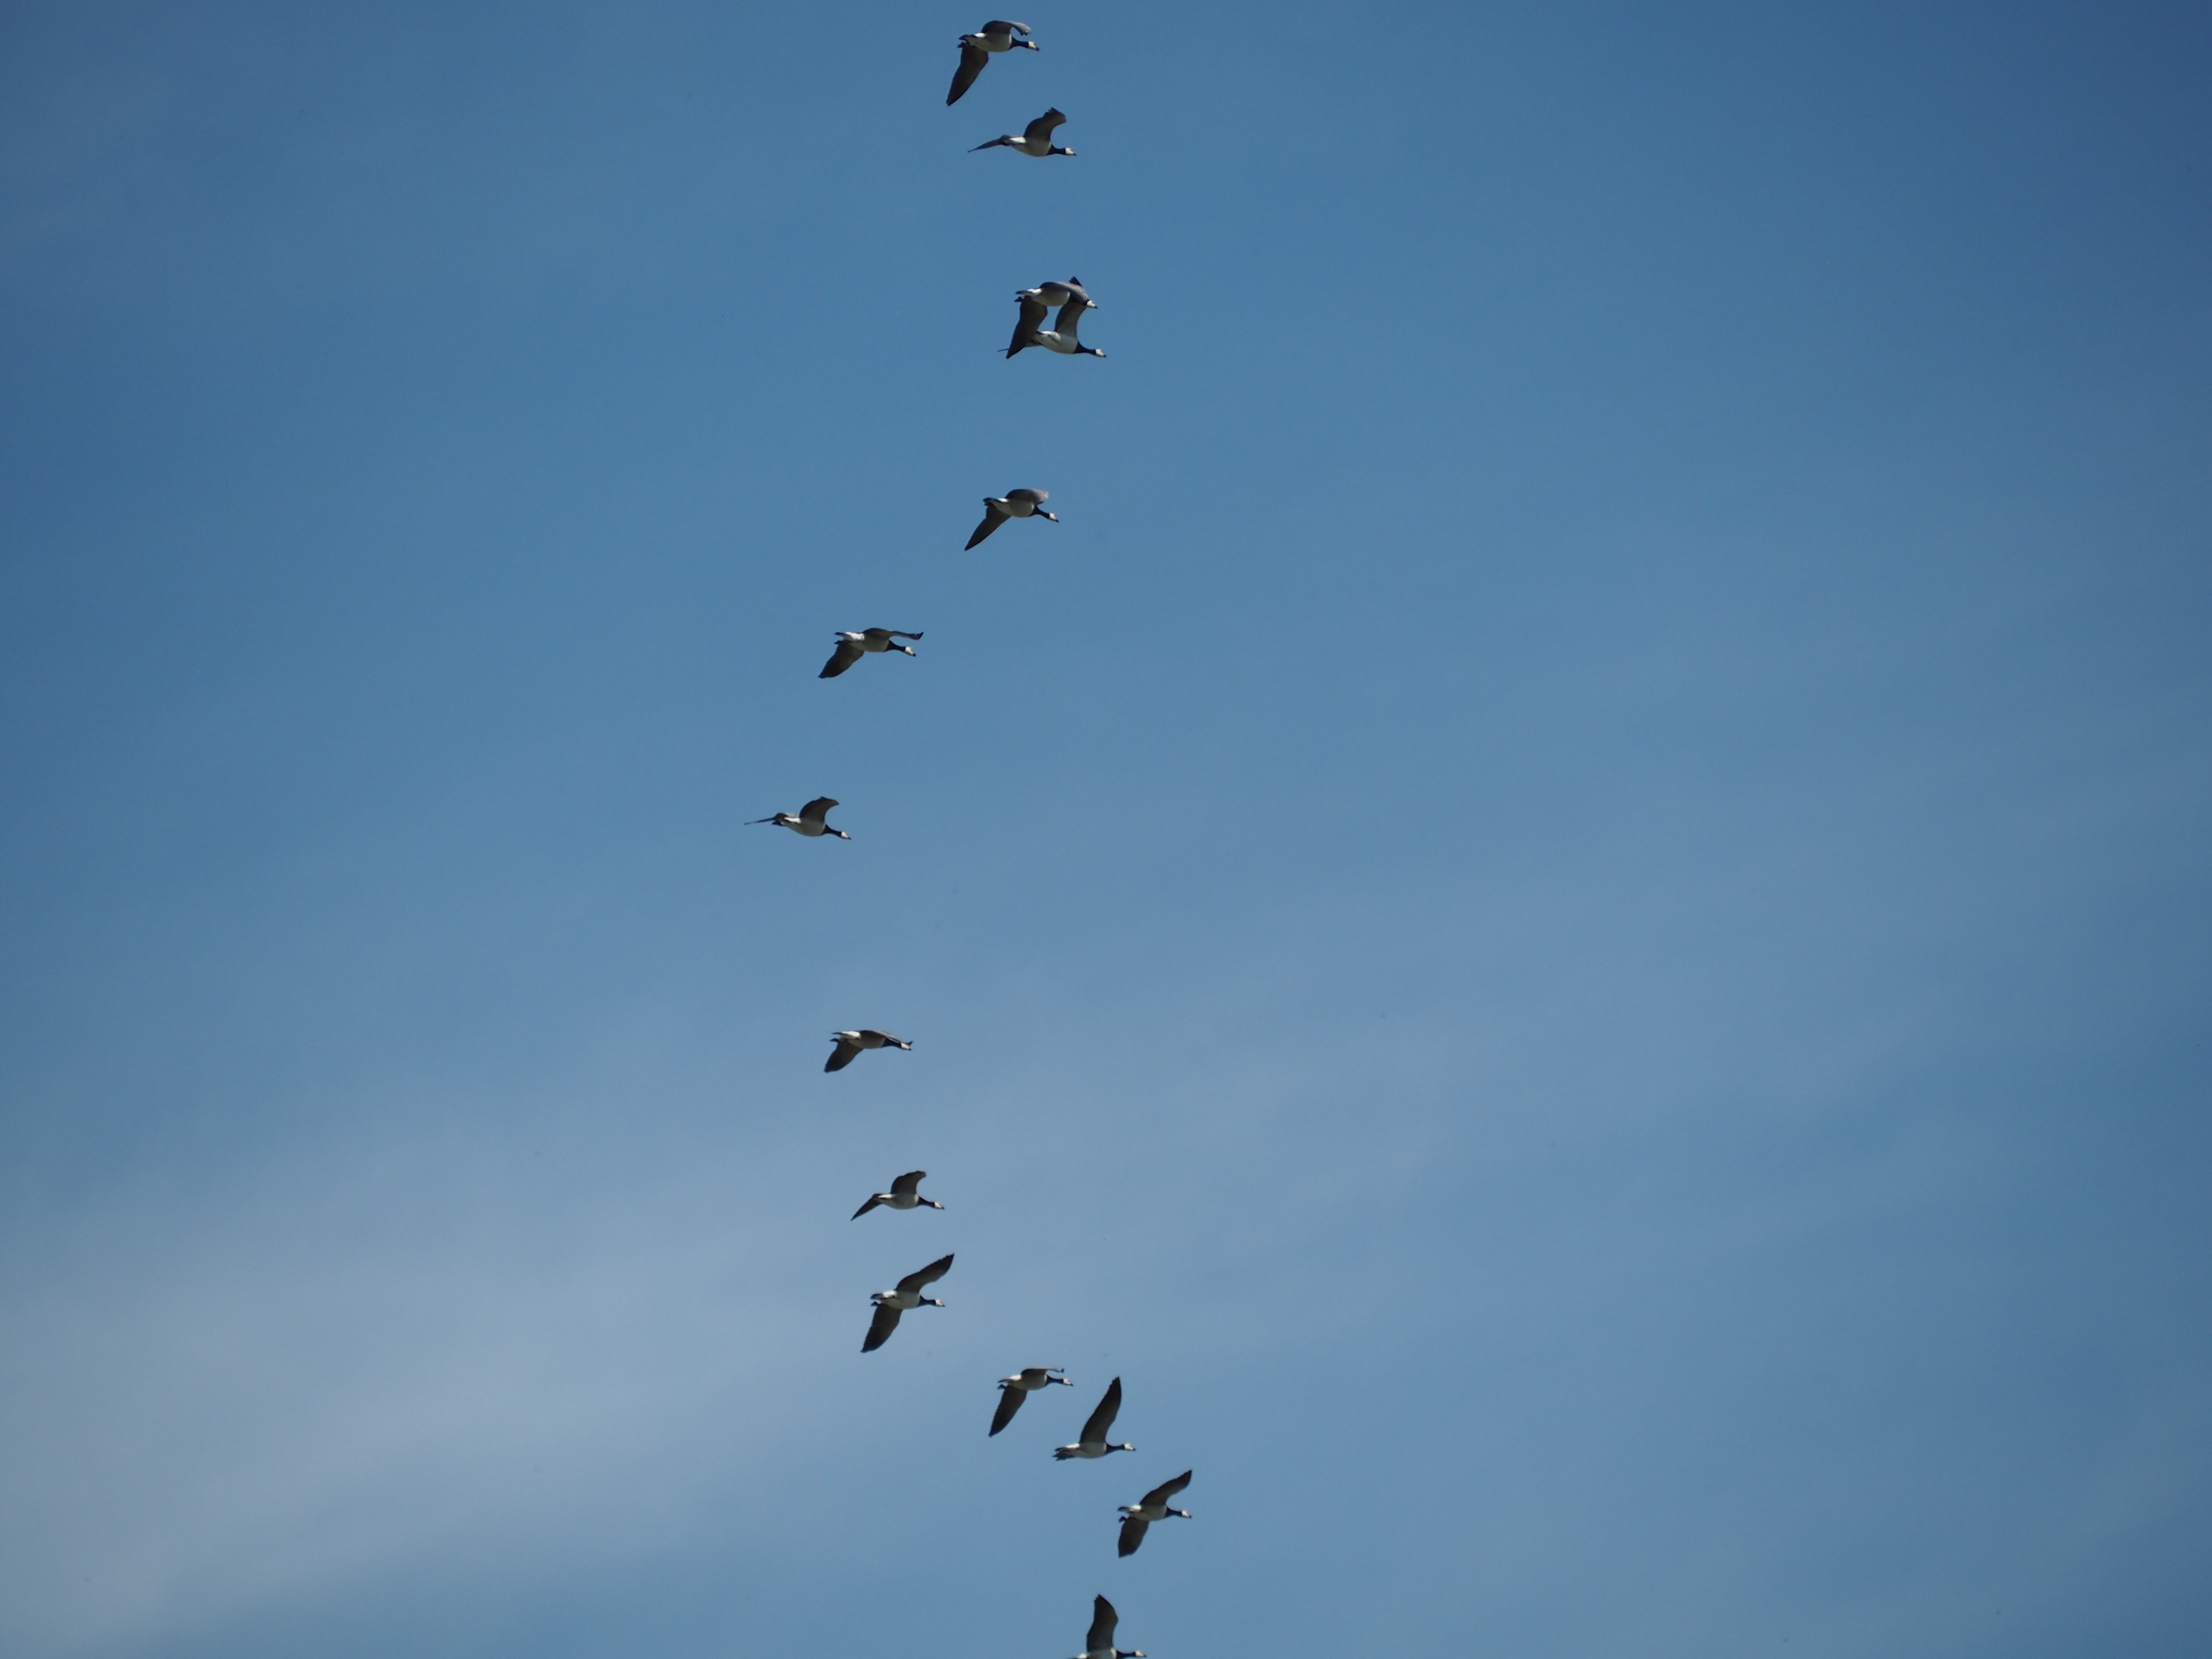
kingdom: Animalia
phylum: Chordata
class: Aves
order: Anseriformes
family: Anatidae
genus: Branta
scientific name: Branta leucopsis
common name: Bramgås
